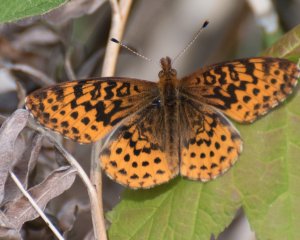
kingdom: Animalia
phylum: Arthropoda
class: Insecta
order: Lepidoptera
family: Nymphalidae
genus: Clossiana
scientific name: Clossiana toddi
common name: Meadow Fritillary
